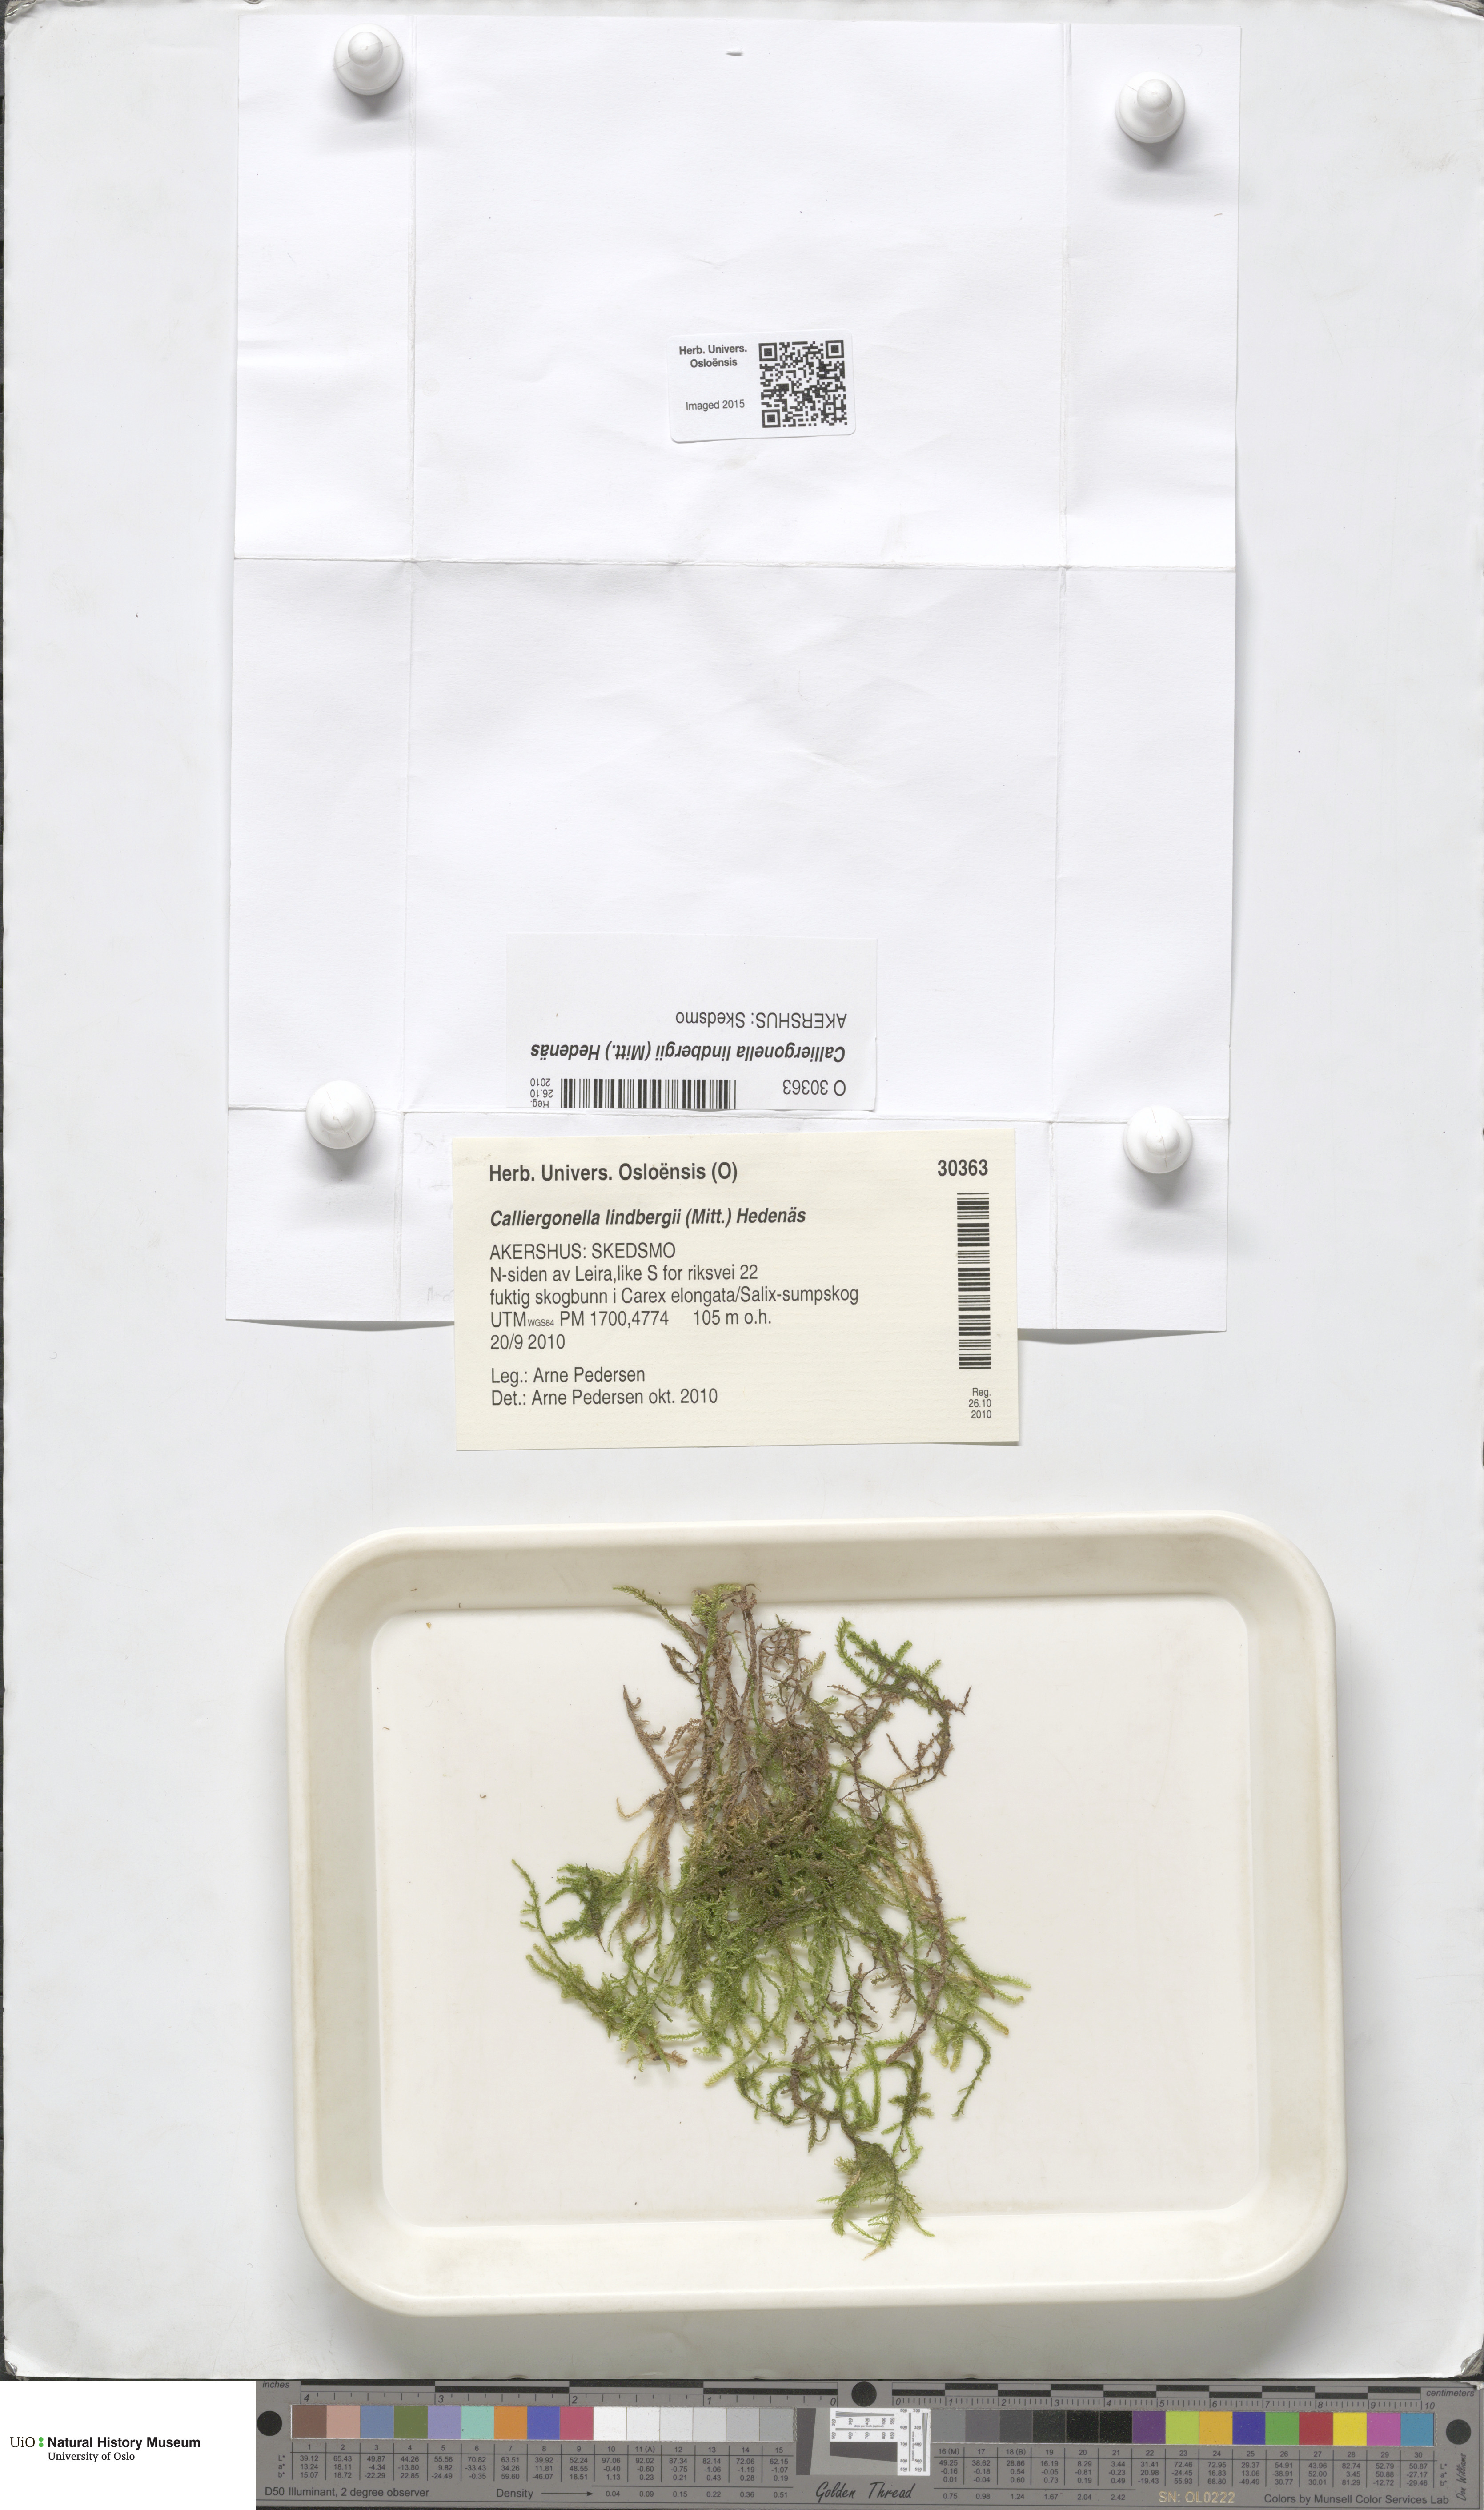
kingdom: Plantae
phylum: Bryophyta
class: Bryopsida
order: Hypnales
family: Pylaisiaceae
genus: Calliergonella
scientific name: Calliergonella lindbergii
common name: Lindberg's plait-moss
